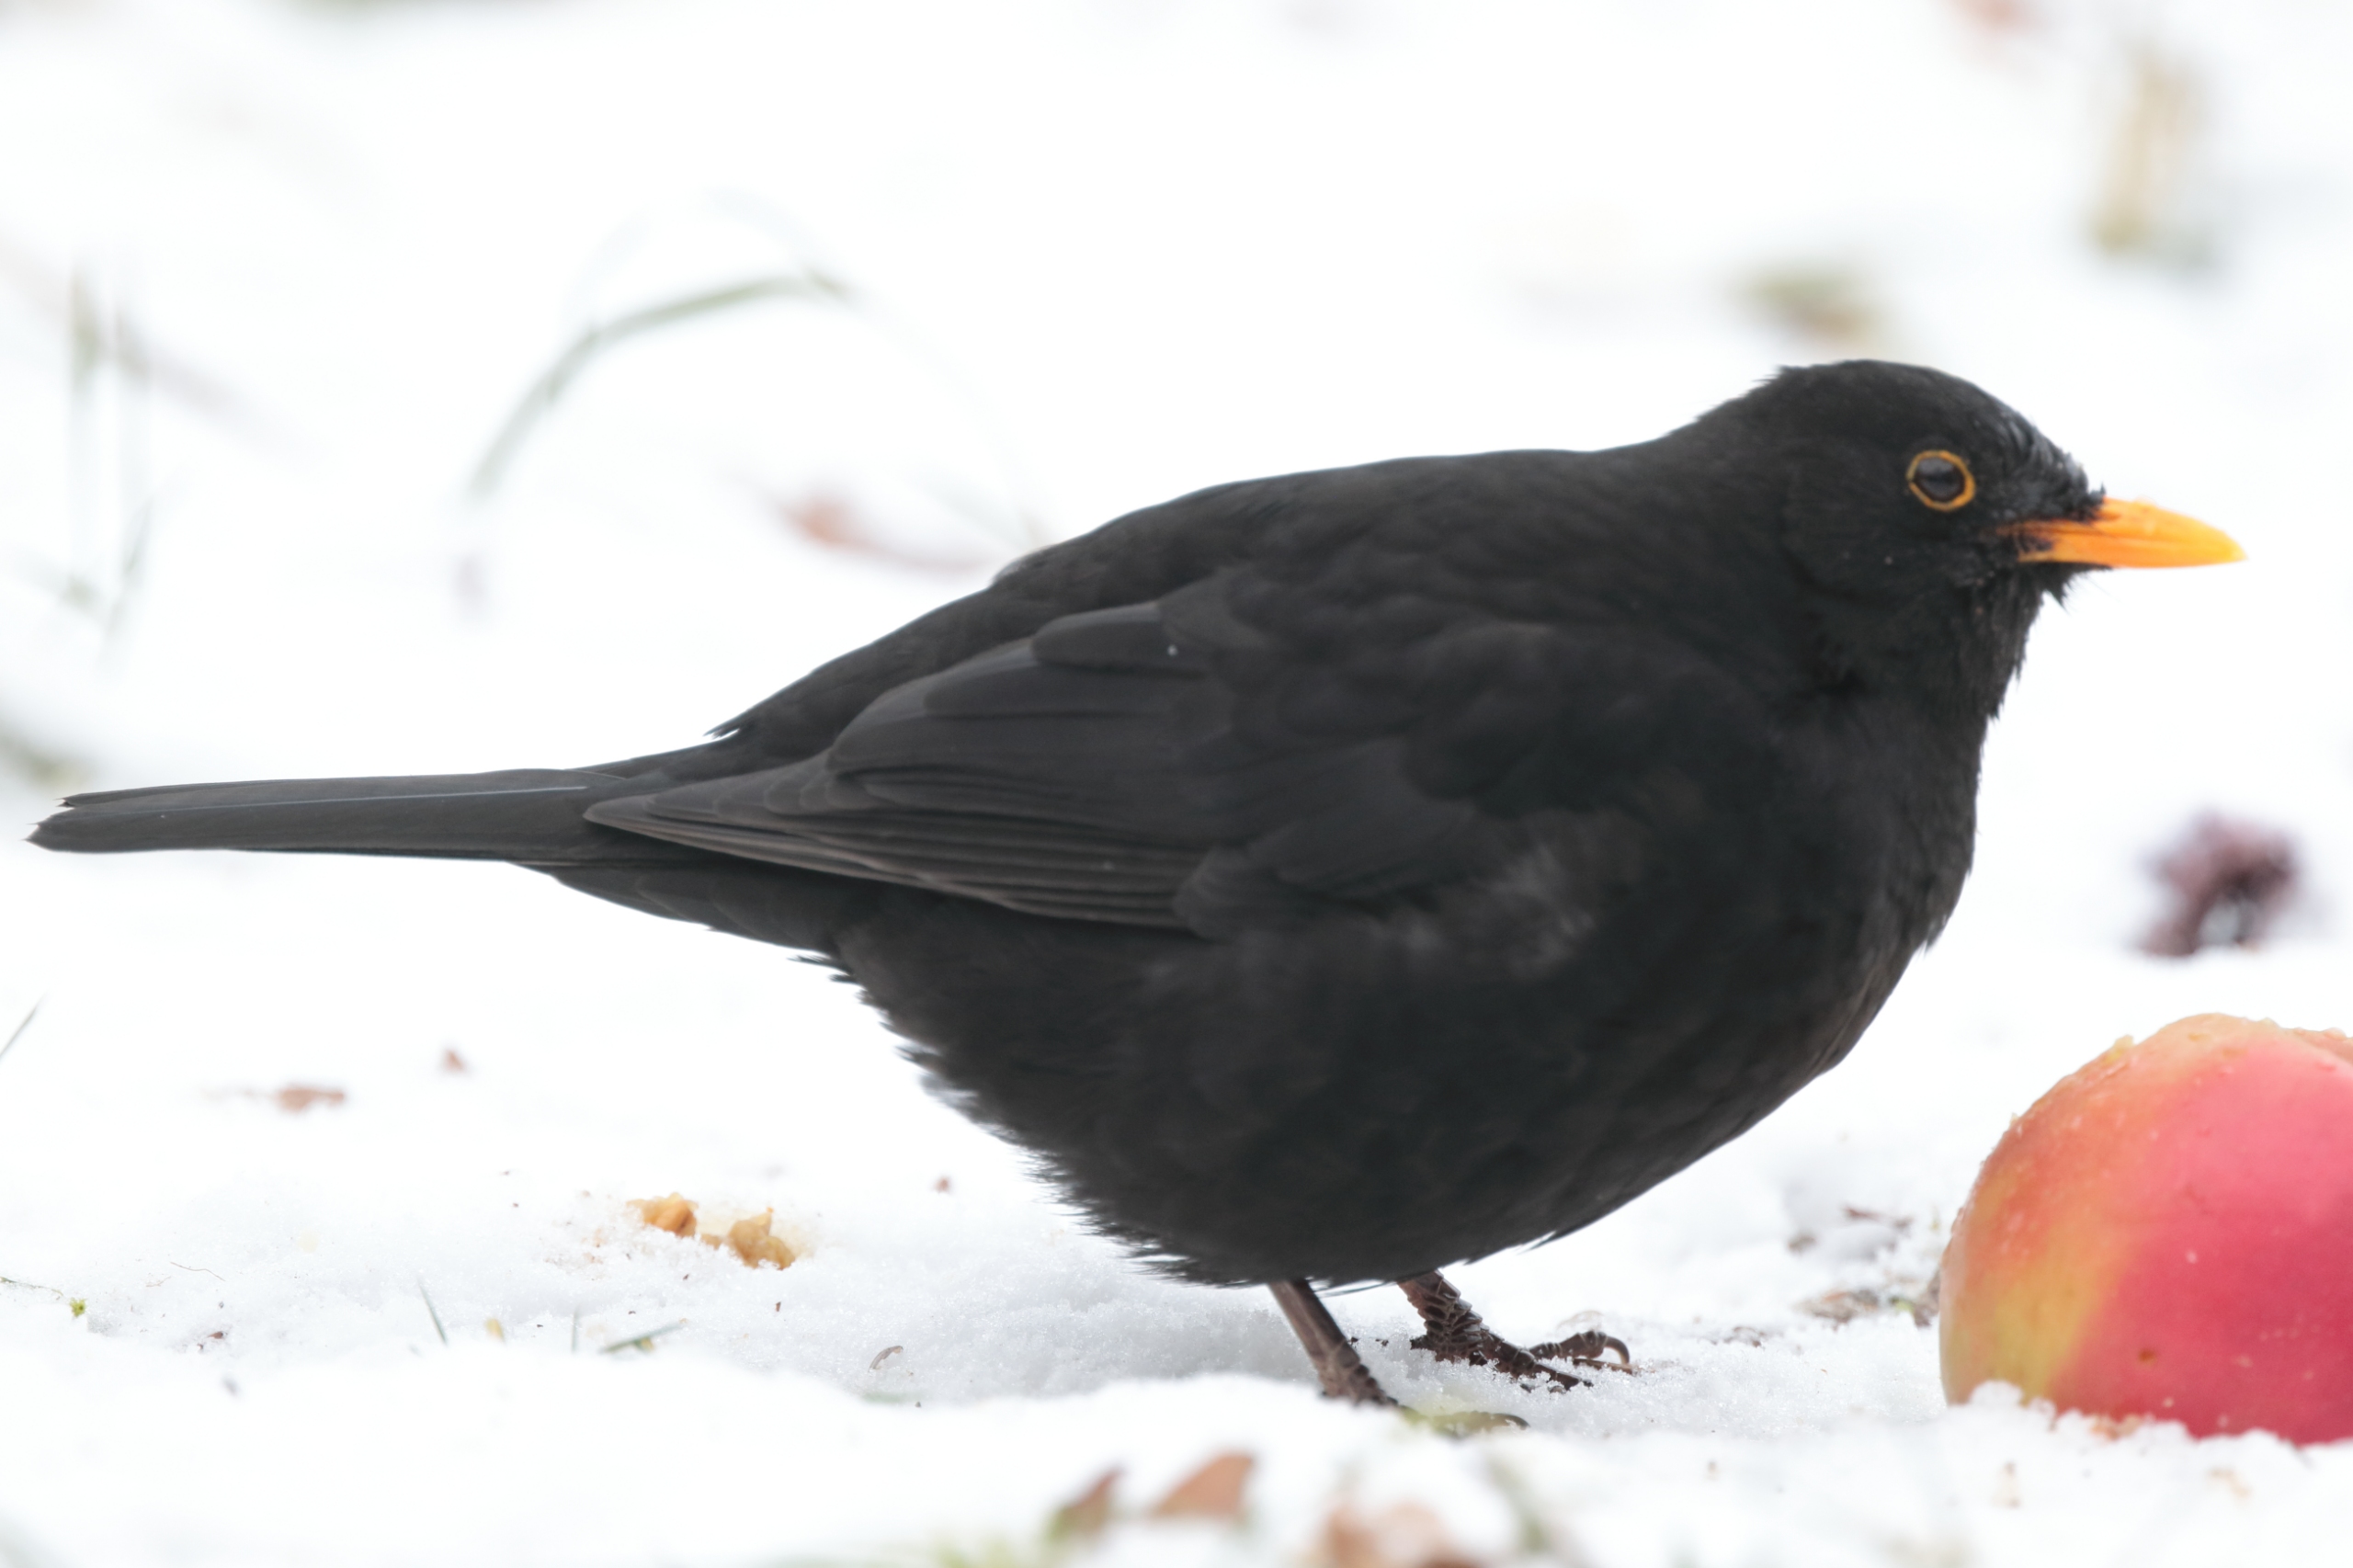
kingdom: Animalia
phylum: Chordata
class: Aves
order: Passeriformes
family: Turdidae
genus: Turdus
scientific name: Turdus merula
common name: Solsort
